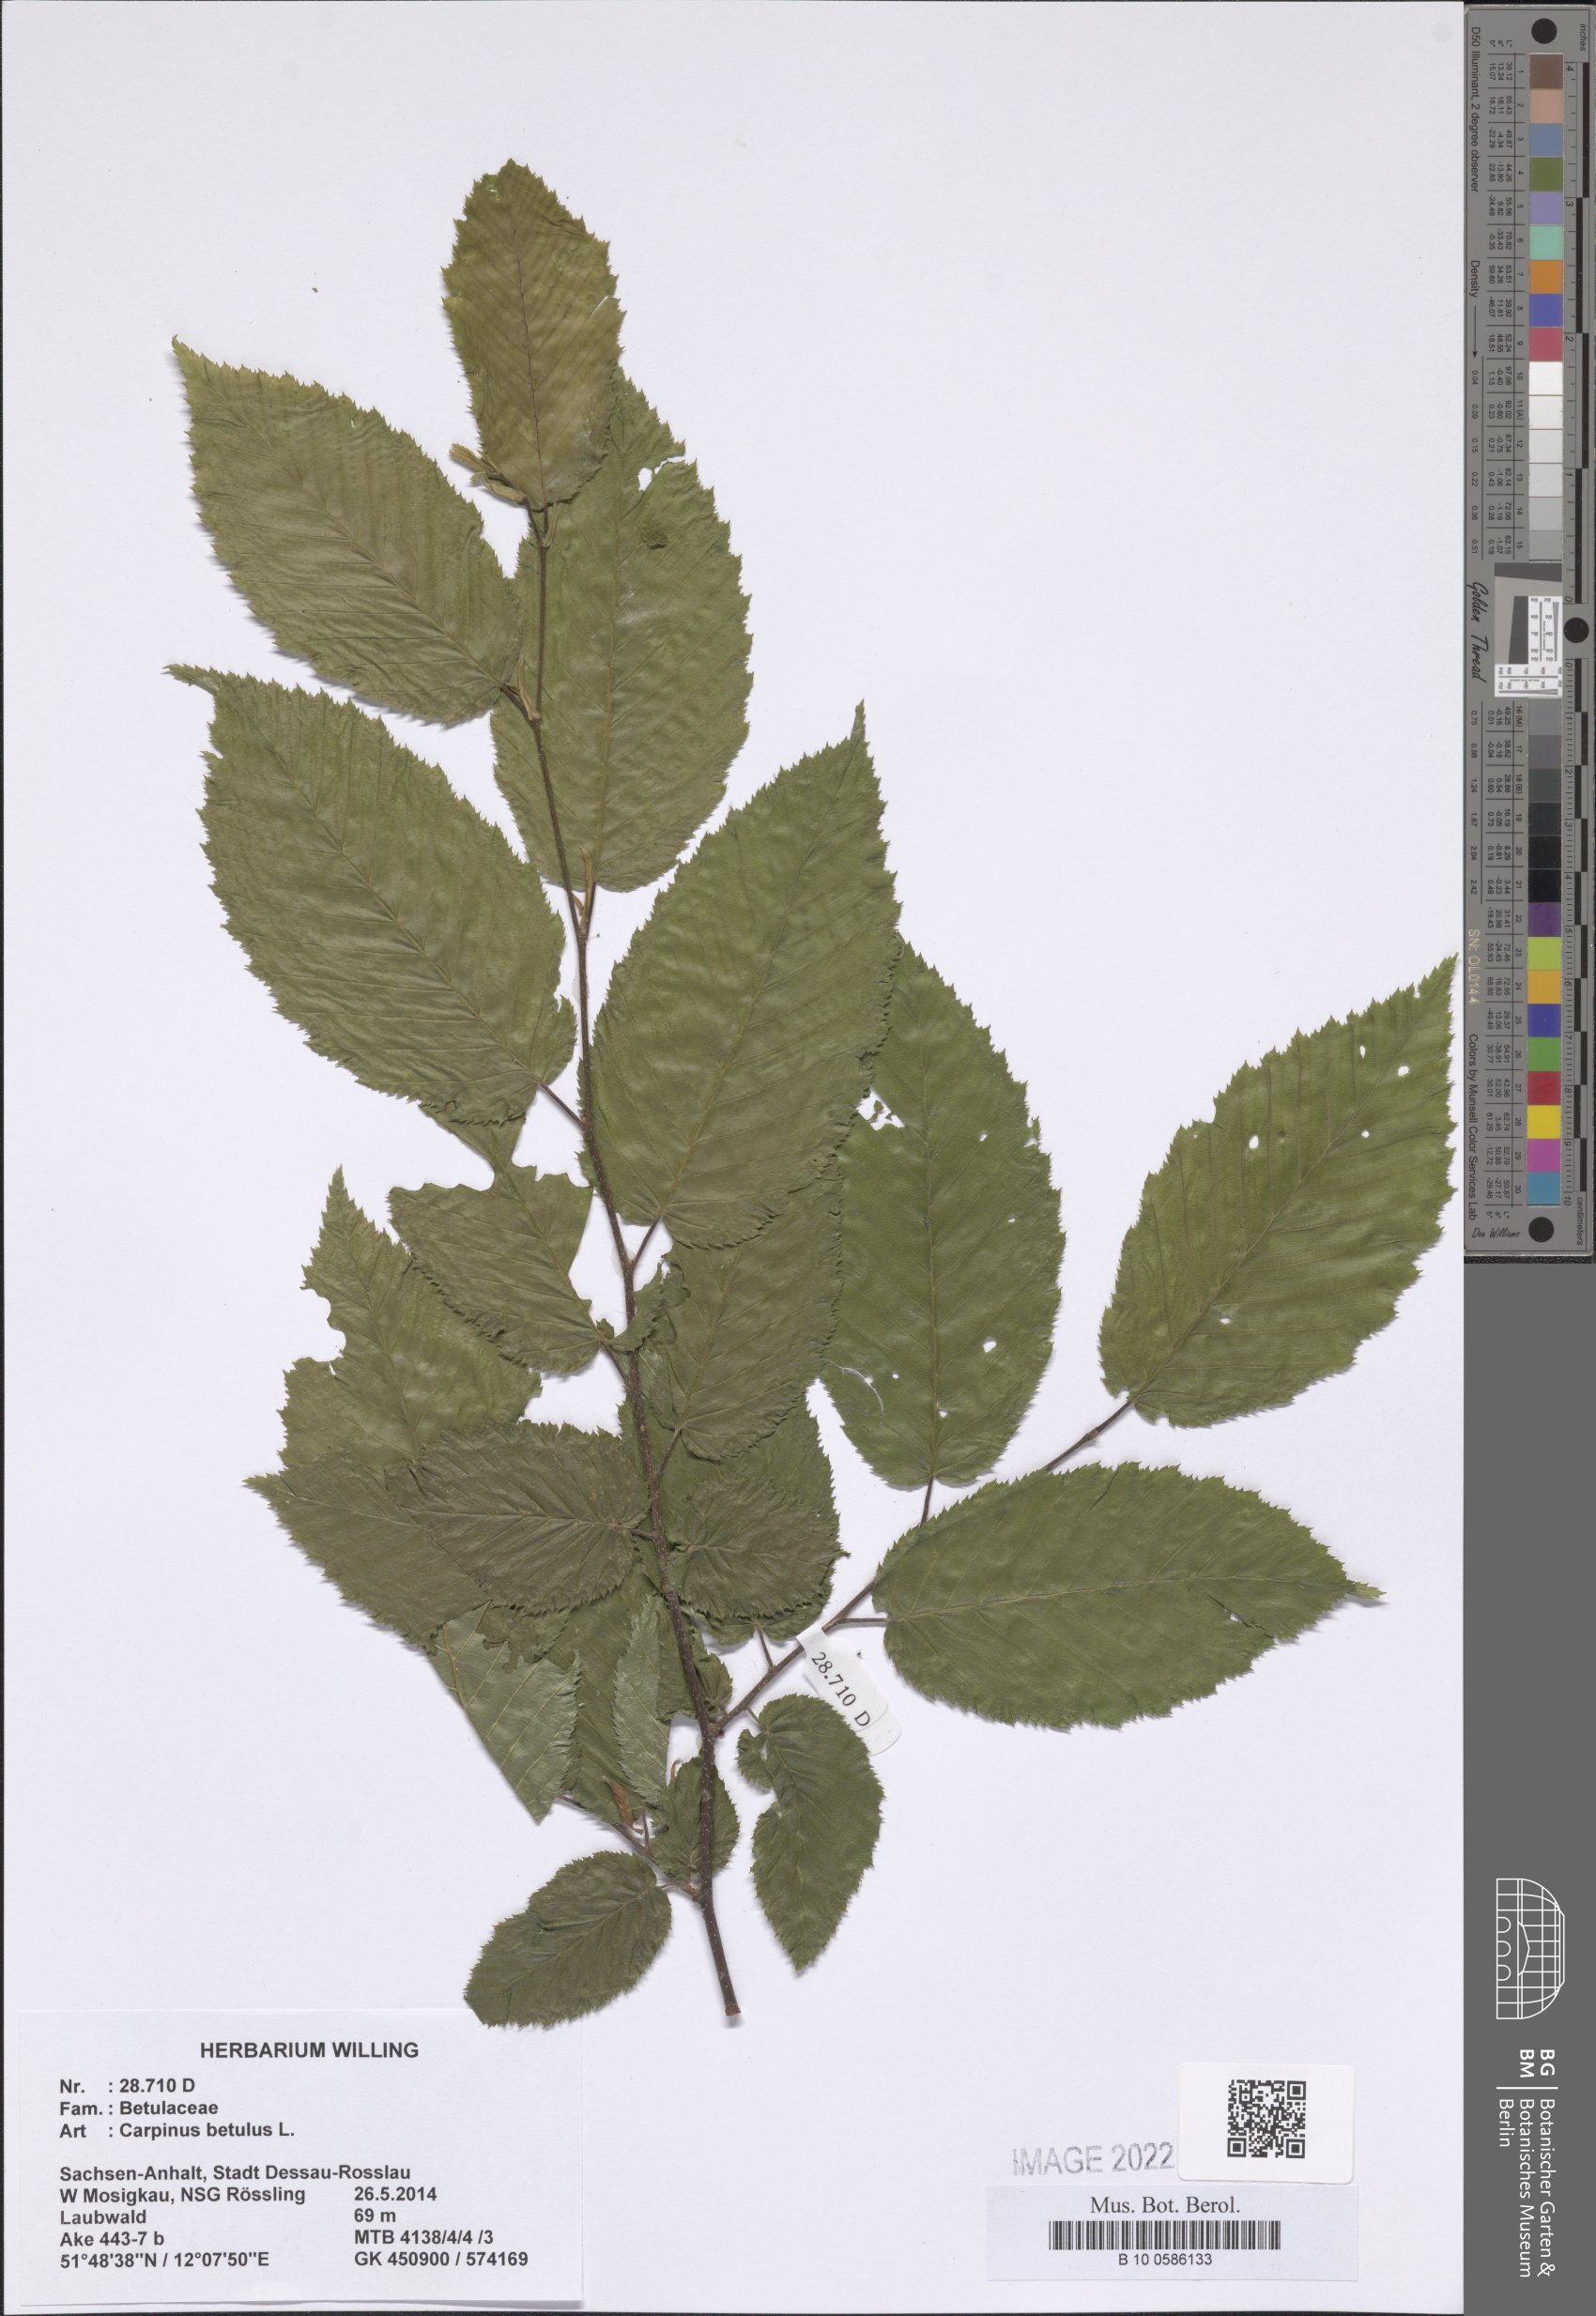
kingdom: Plantae
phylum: Tracheophyta
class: Magnoliopsida
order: Fagales
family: Betulaceae
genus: Carpinus
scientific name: Carpinus betulus
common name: Hornbeam
